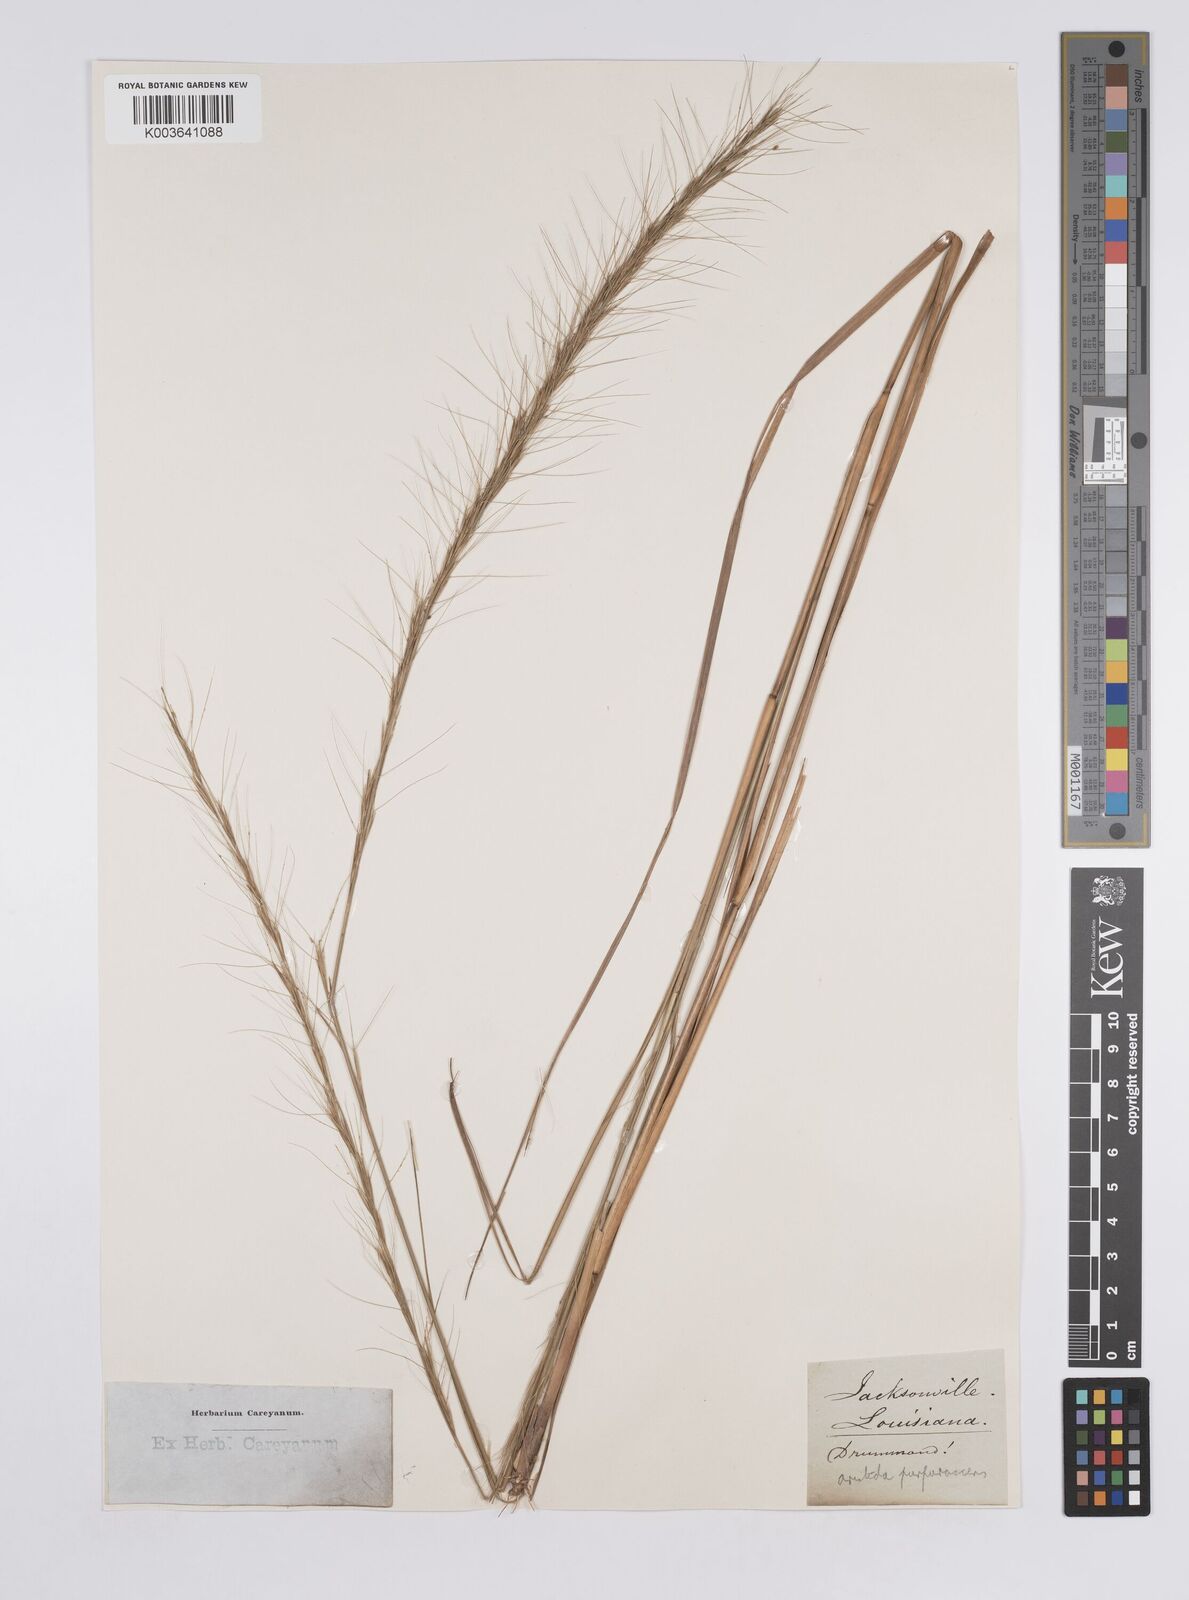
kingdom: Plantae
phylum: Tracheophyta
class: Liliopsida
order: Poales
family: Poaceae
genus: Aristida
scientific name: Aristida purpurascens
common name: Arrow-feather
